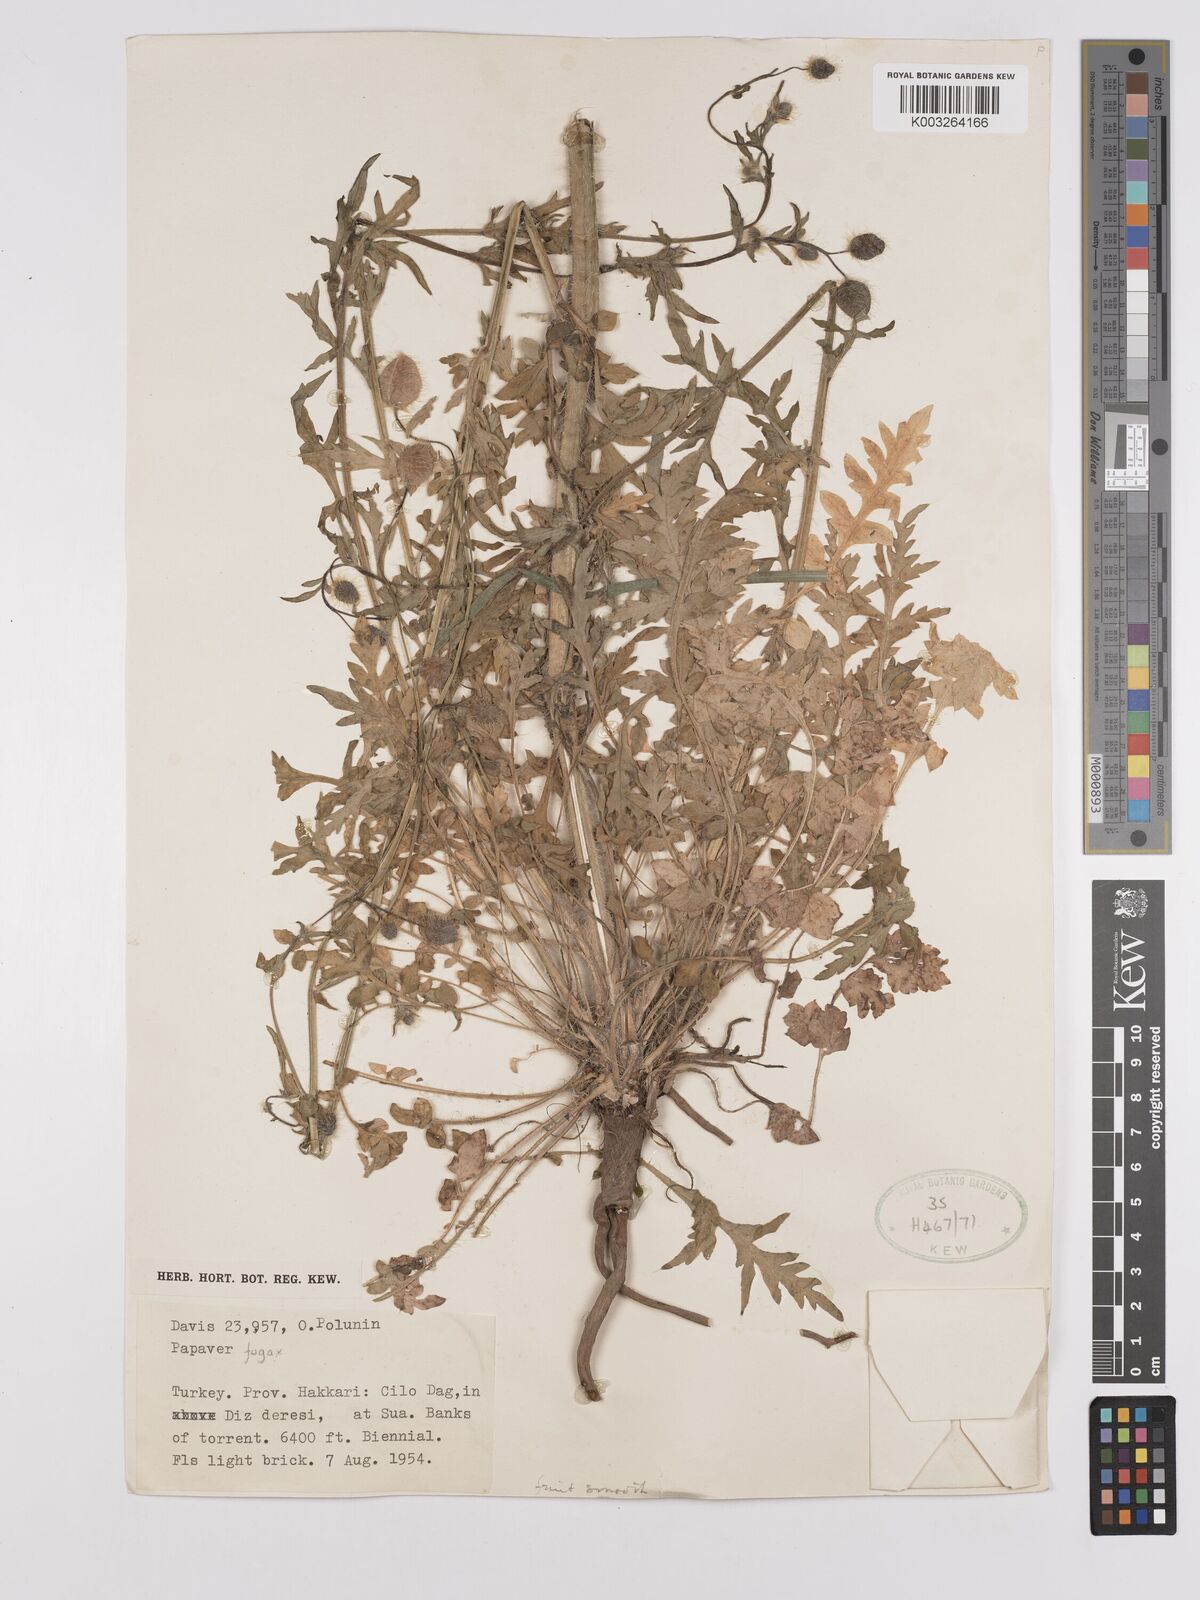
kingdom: Plantae
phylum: Tracheophyta
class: Magnoliopsida
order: Ranunculales
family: Papaveraceae
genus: Papaver
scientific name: Papaver armeniacum
